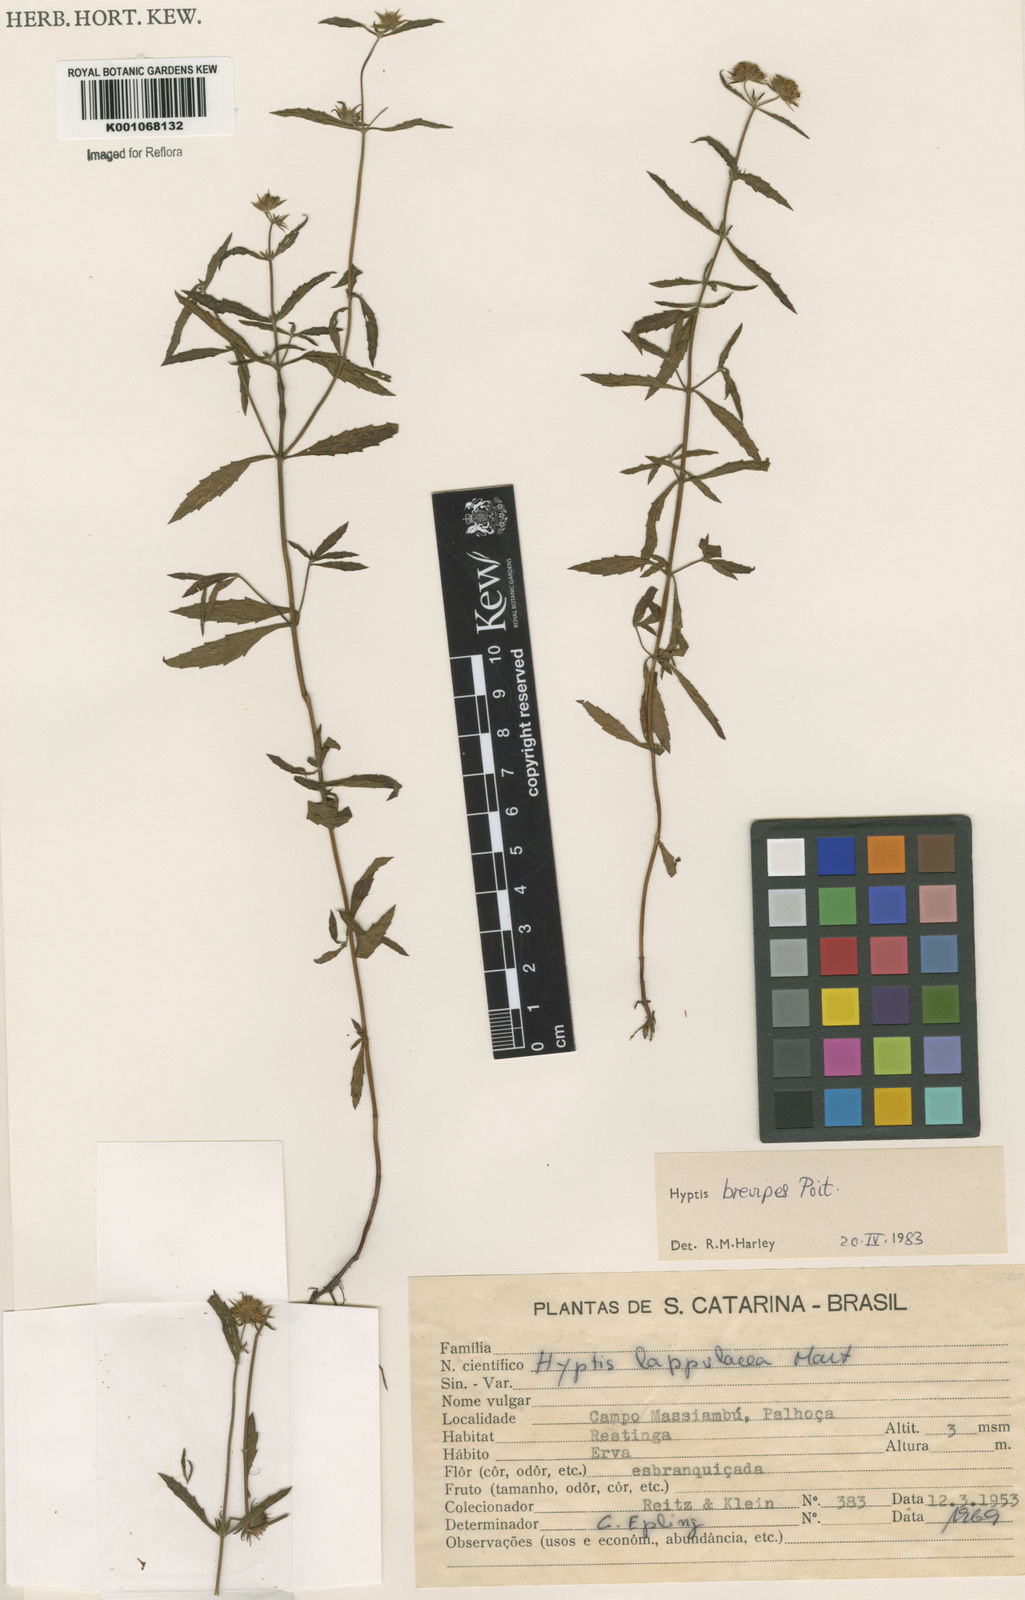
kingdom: Plantae
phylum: Tracheophyta
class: Magnoliopsida
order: Lamiales
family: Lamiaceae
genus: Hyptis
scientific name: Hyptis brevipes
